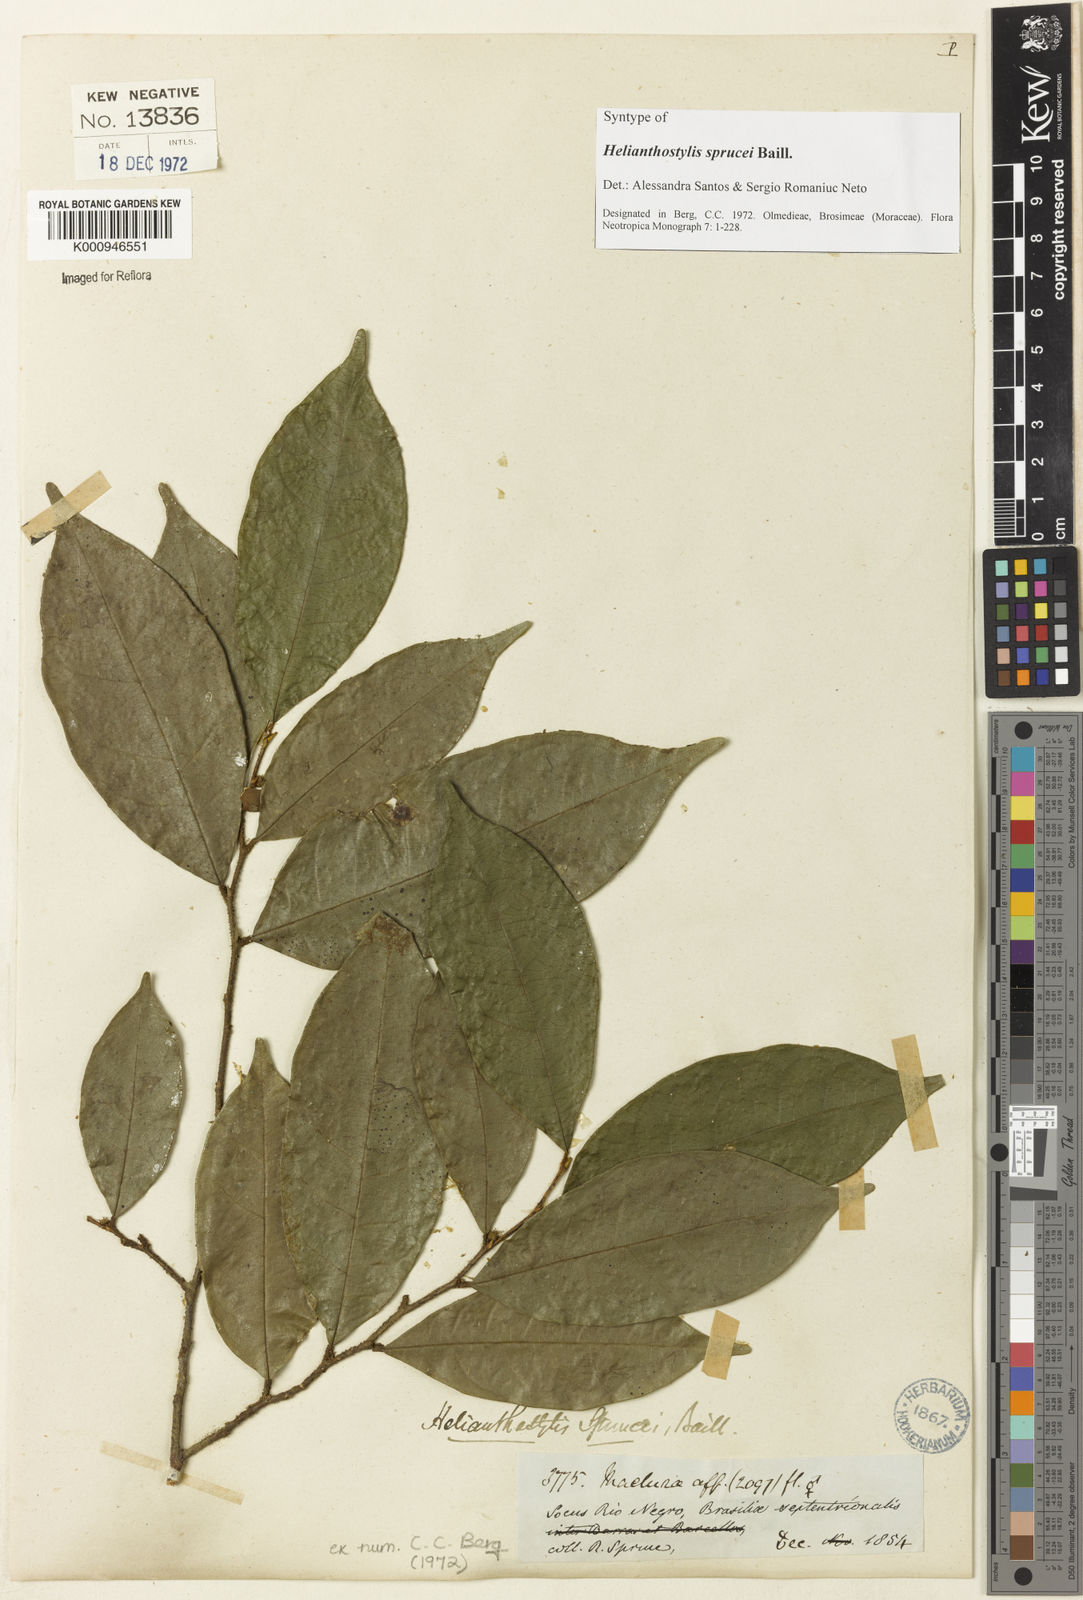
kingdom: Plantae
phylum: Tracheophyta
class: Magnoliopsida
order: Rosales
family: Moraceae
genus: Brosimum
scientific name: Brosimum sprucei
